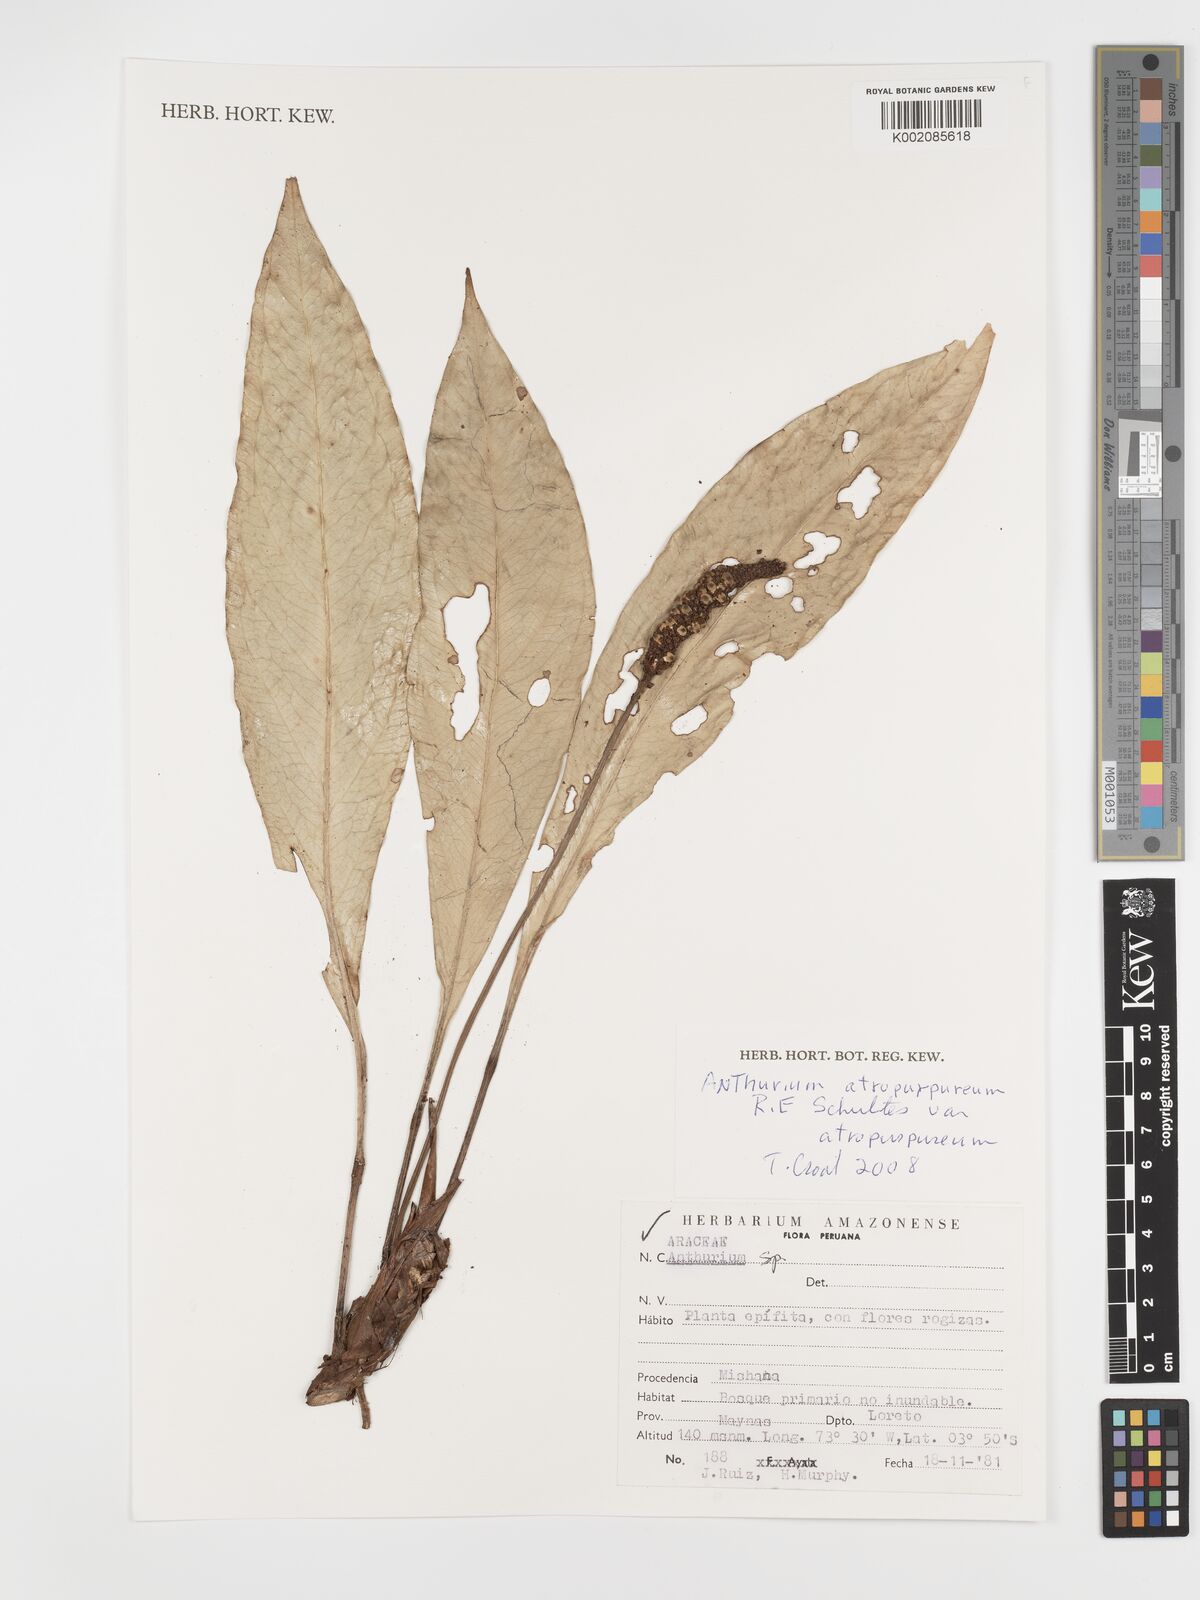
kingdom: Plantae
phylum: Tracheophyta
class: Liliopsida
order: Alismatales
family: Araceae
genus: Anthurium
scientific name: Anthurium atropurpureum
